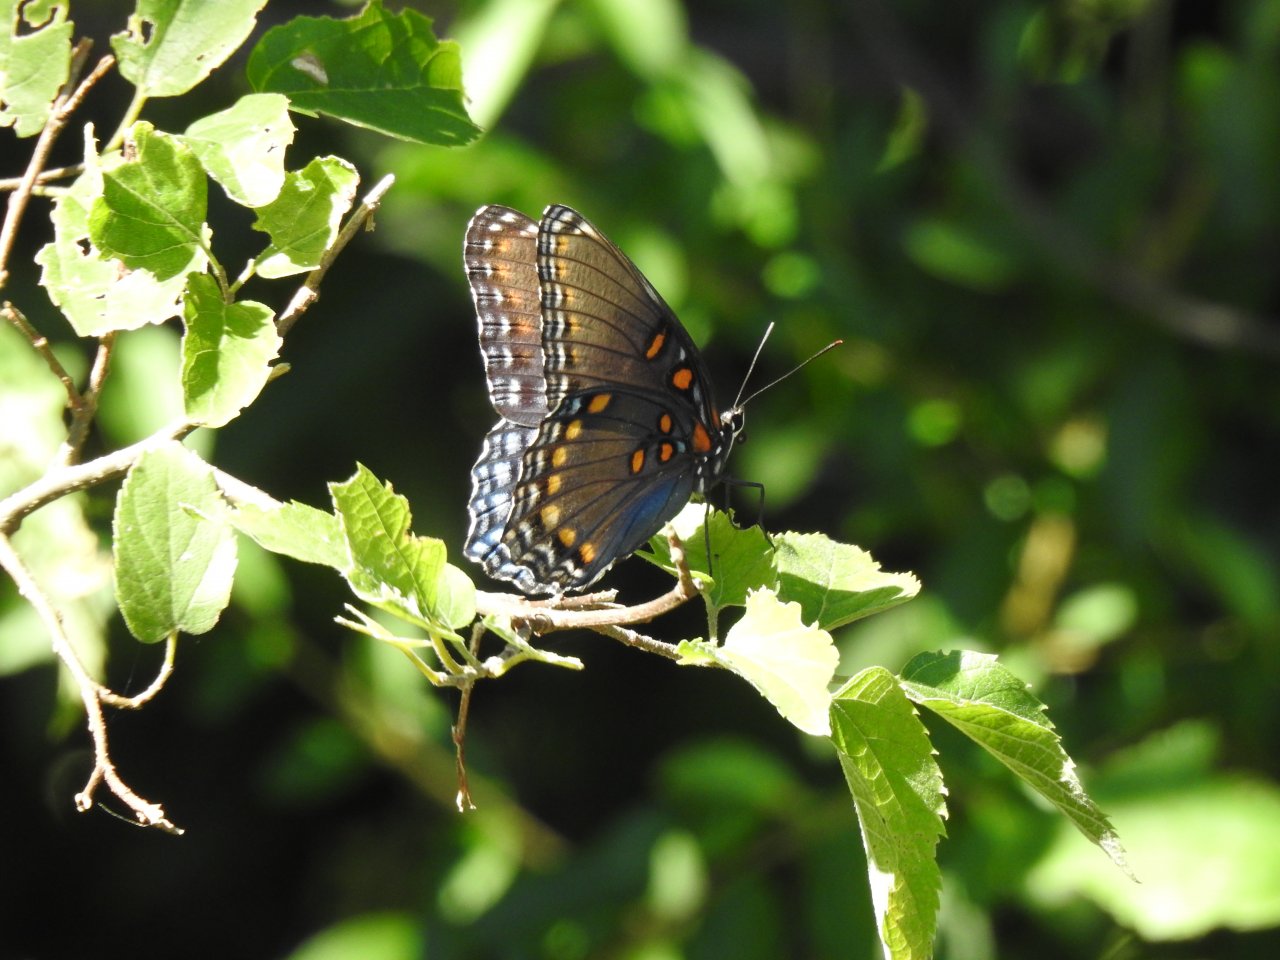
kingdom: Animalia
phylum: Arthropoda
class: Insecta
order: Lepidoptera
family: Nymphalidae
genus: Limenitis
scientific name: Limenitis arthemis
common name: Red-spotted Admiral
